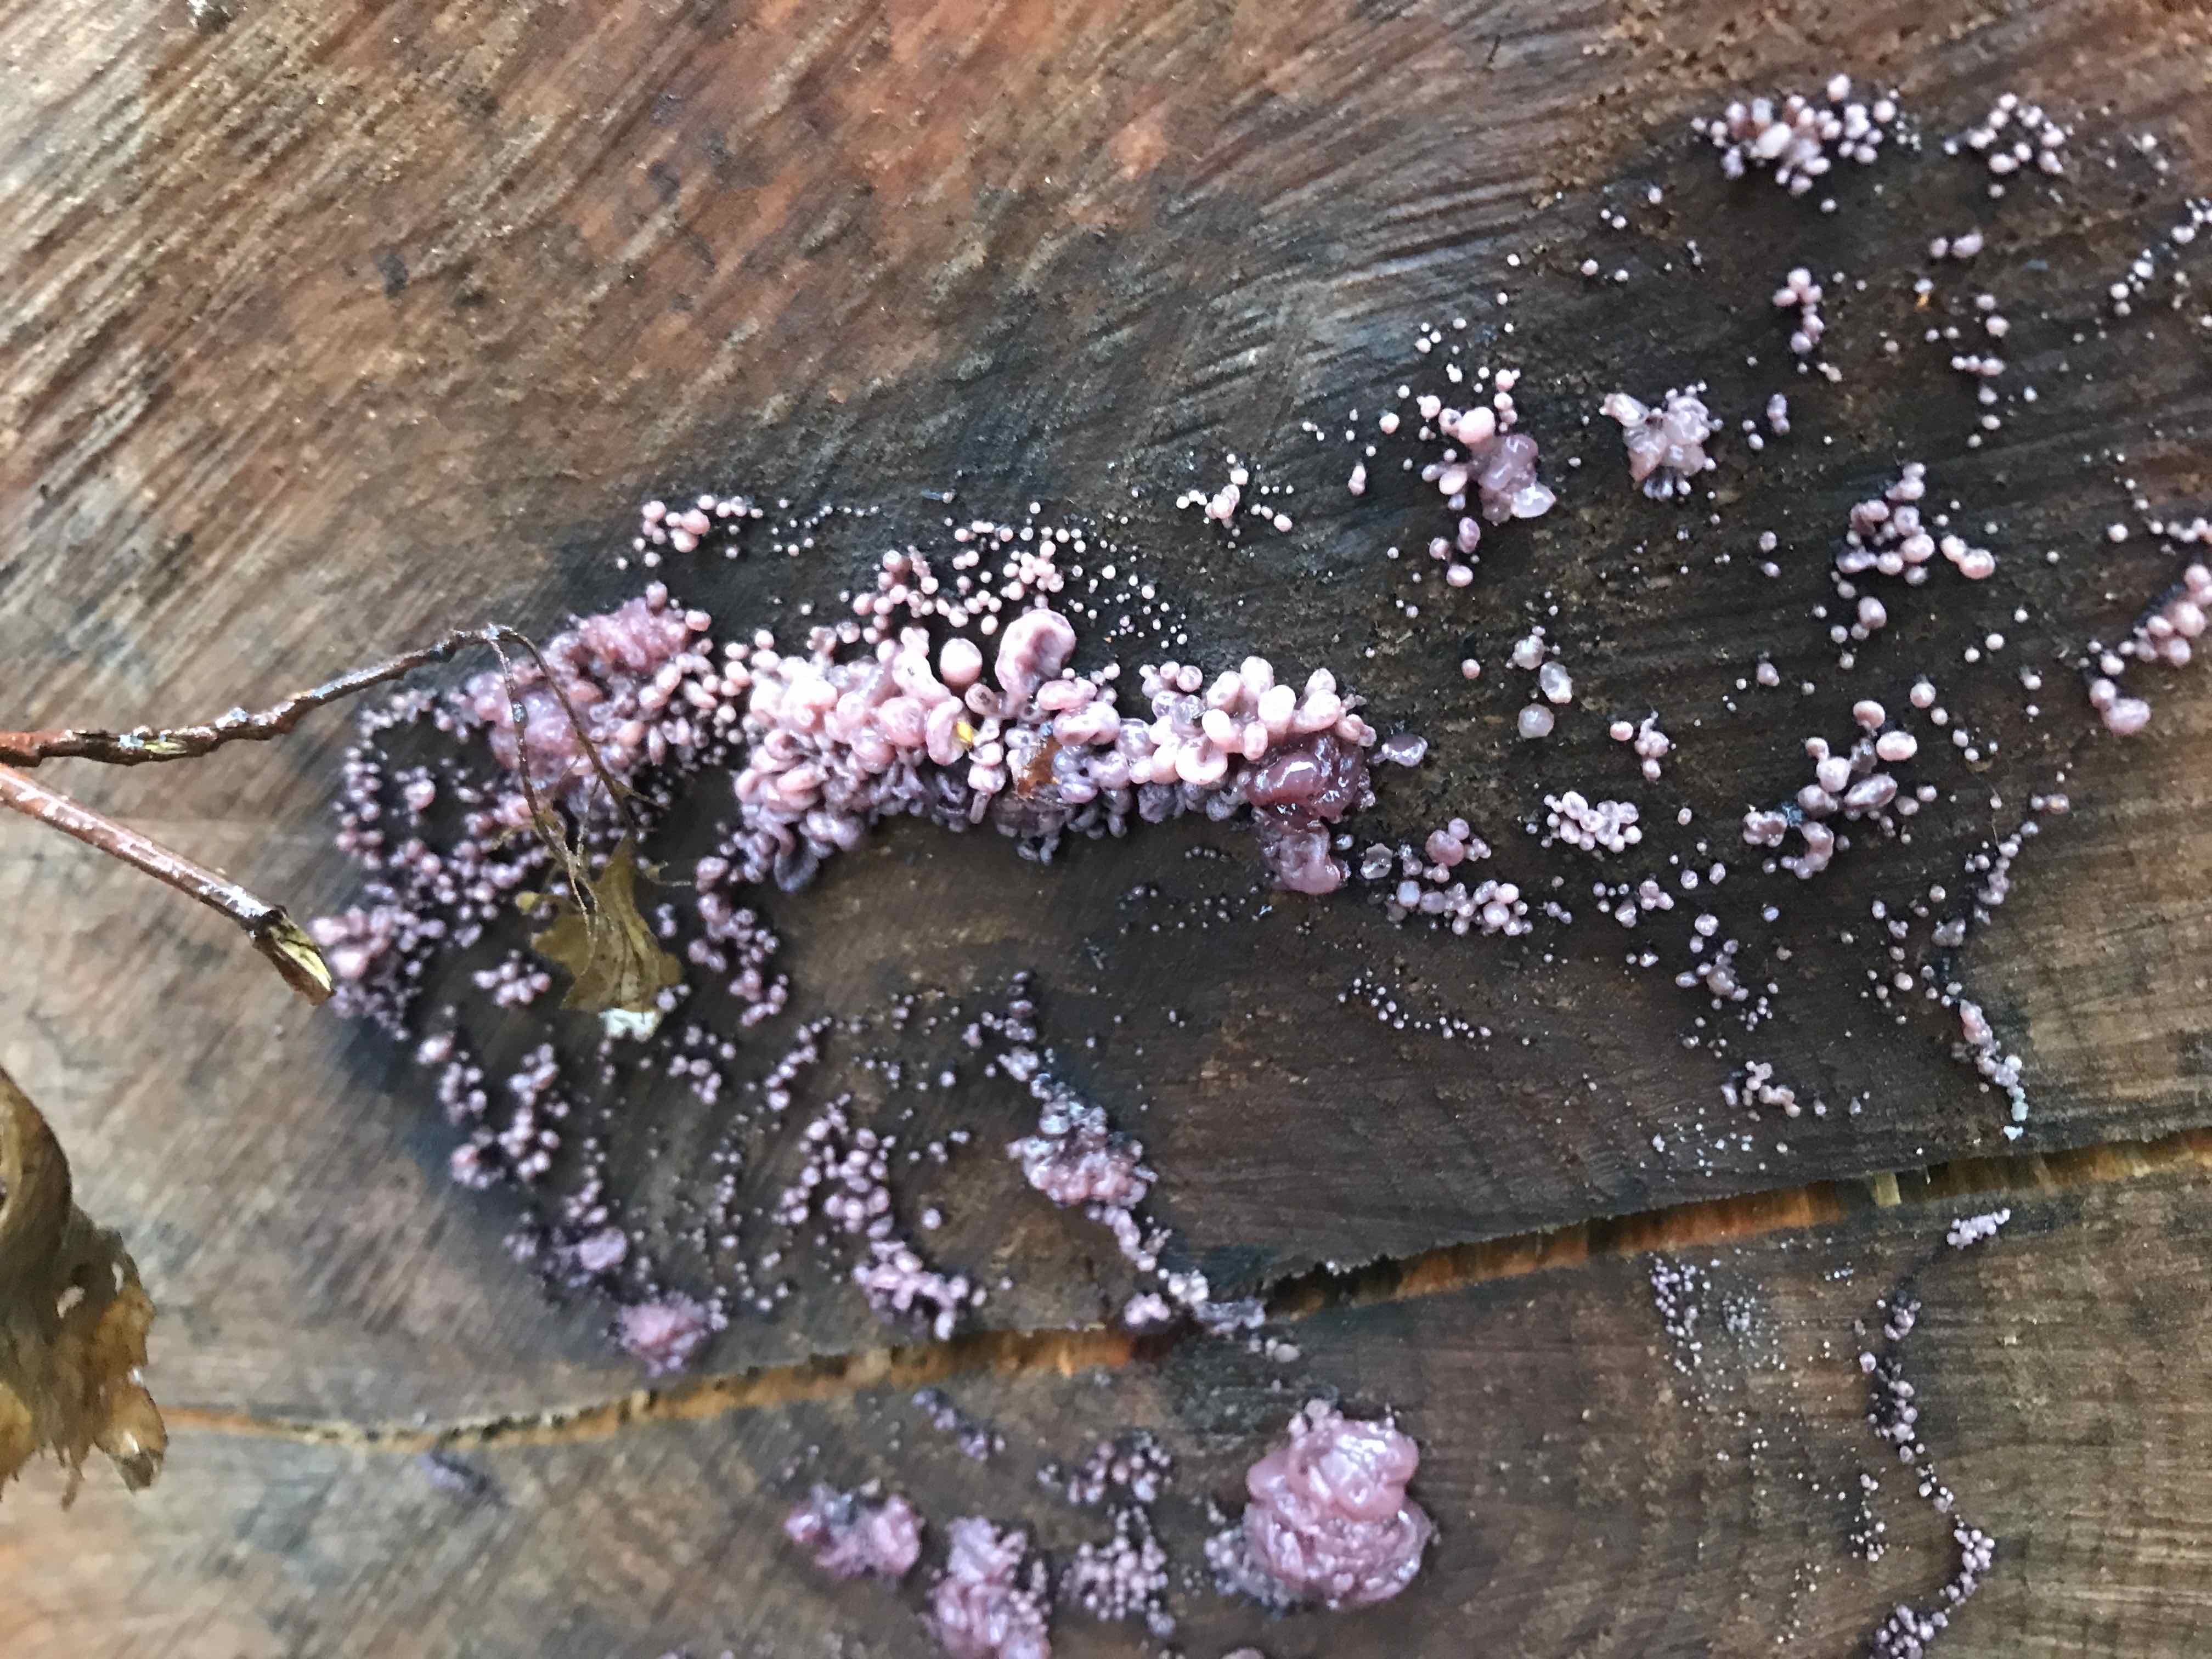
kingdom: Fungi
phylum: Ascomycota
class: Leotiomycetes
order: Helotiales
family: Gelatinodiscaceae
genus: Ascocoryne
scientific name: Ascocoryne sarcoides
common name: rødlilla sejskive
